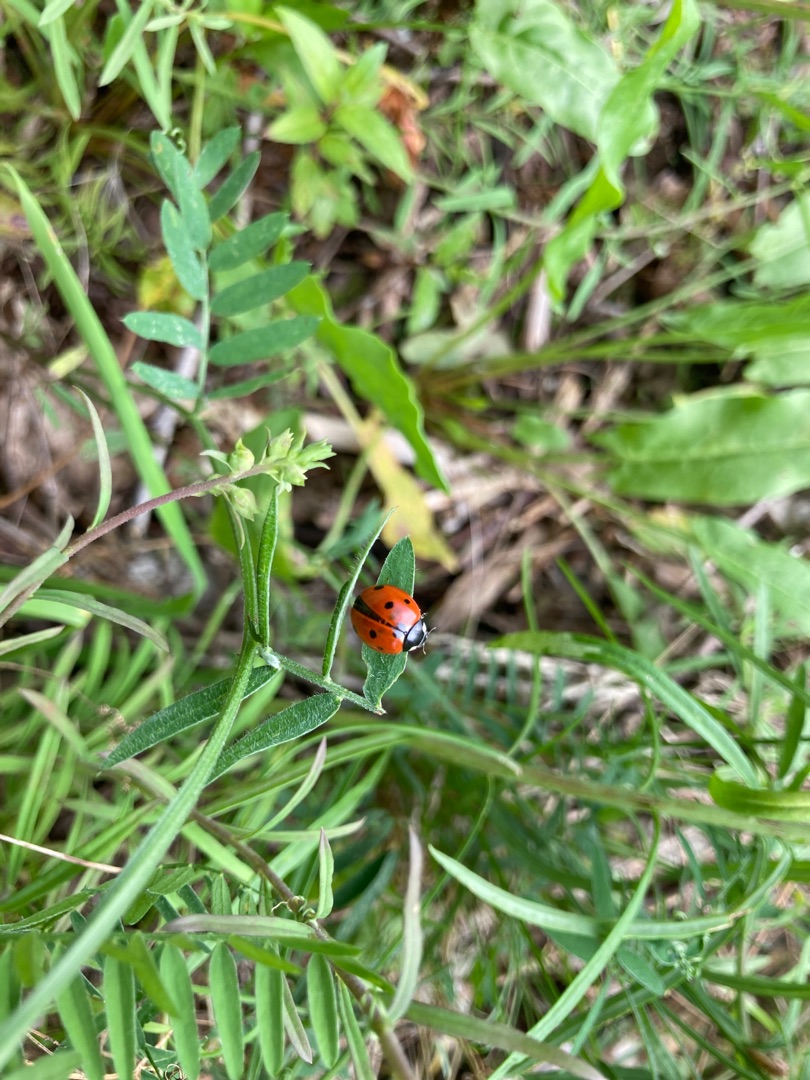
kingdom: Animalia
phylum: Arthropoda
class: Insecta
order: Coleoptera
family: Coccinellidae
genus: Coccinella
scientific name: Coccinella septempunctata
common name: Syvplettet mariehøne
